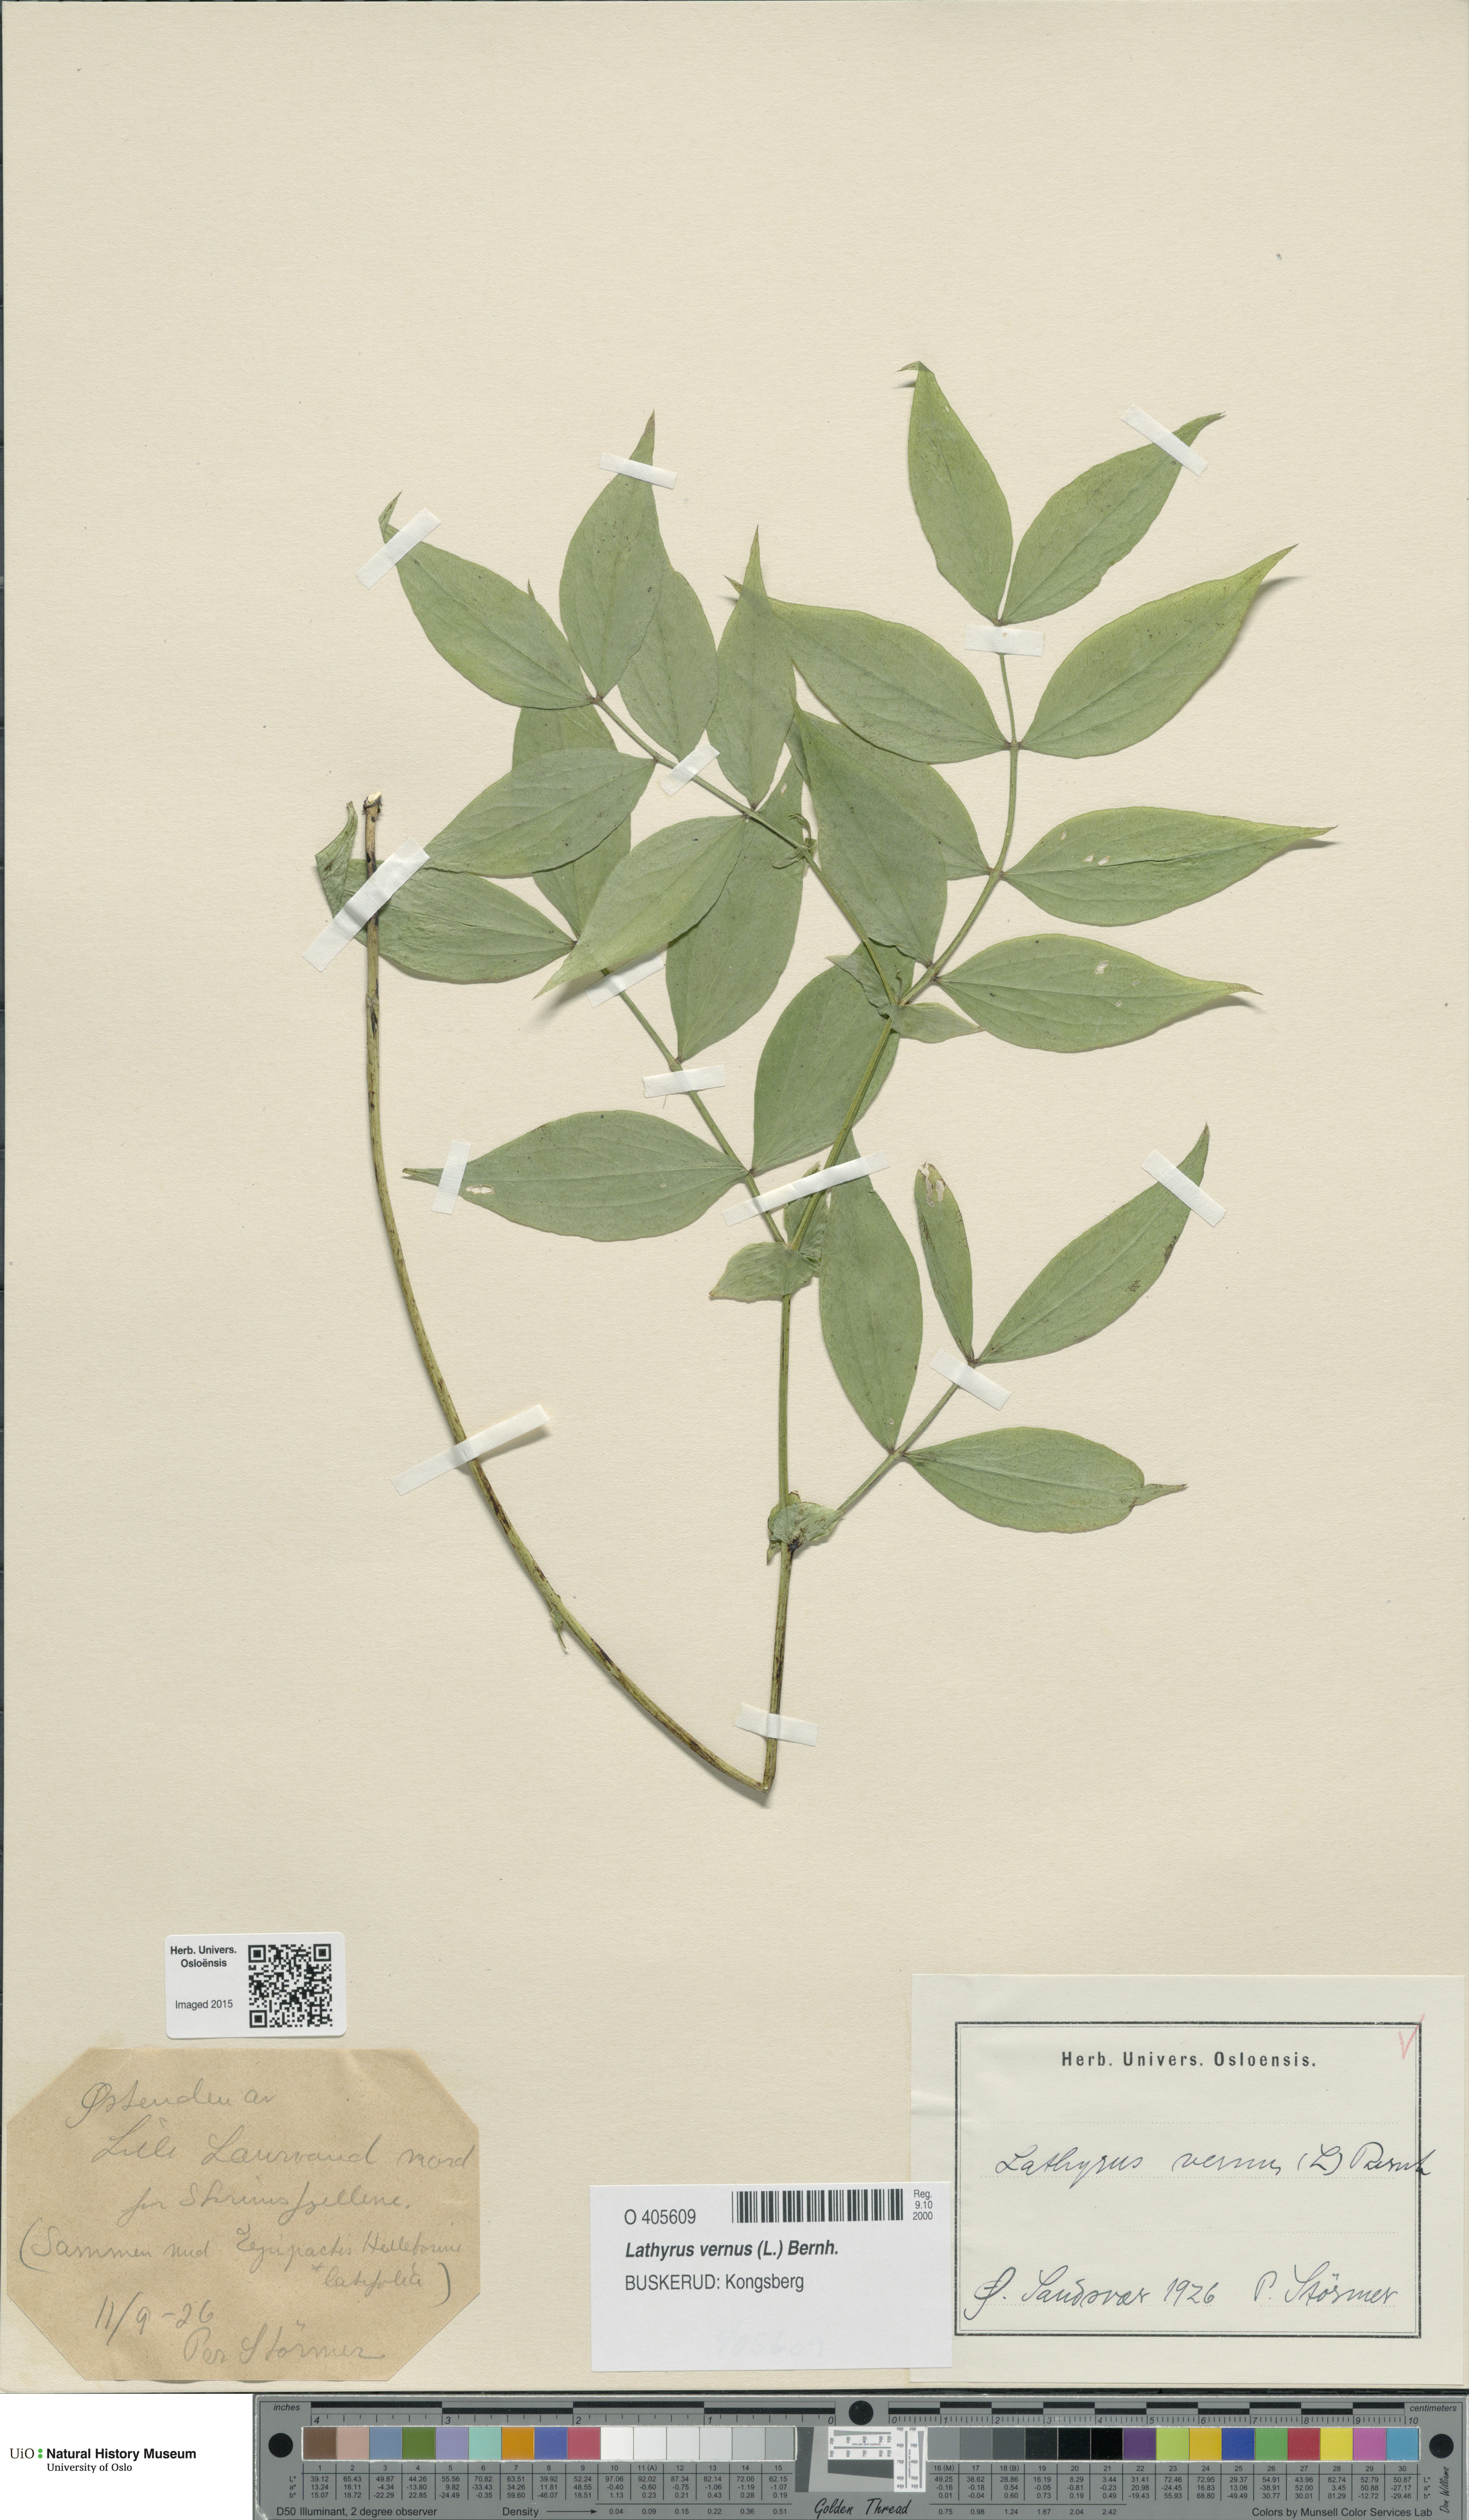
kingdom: Plantae
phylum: Tracheophyta
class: Magnoliopsida
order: Fabales
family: Fabaceae
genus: Lathyrus
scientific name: Lathyrus vernus
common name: Spring pea
